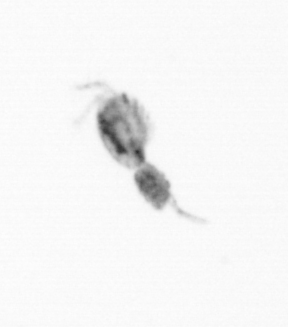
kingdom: Animalia
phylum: Arthropoda
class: Copepoda
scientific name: Copepoda
